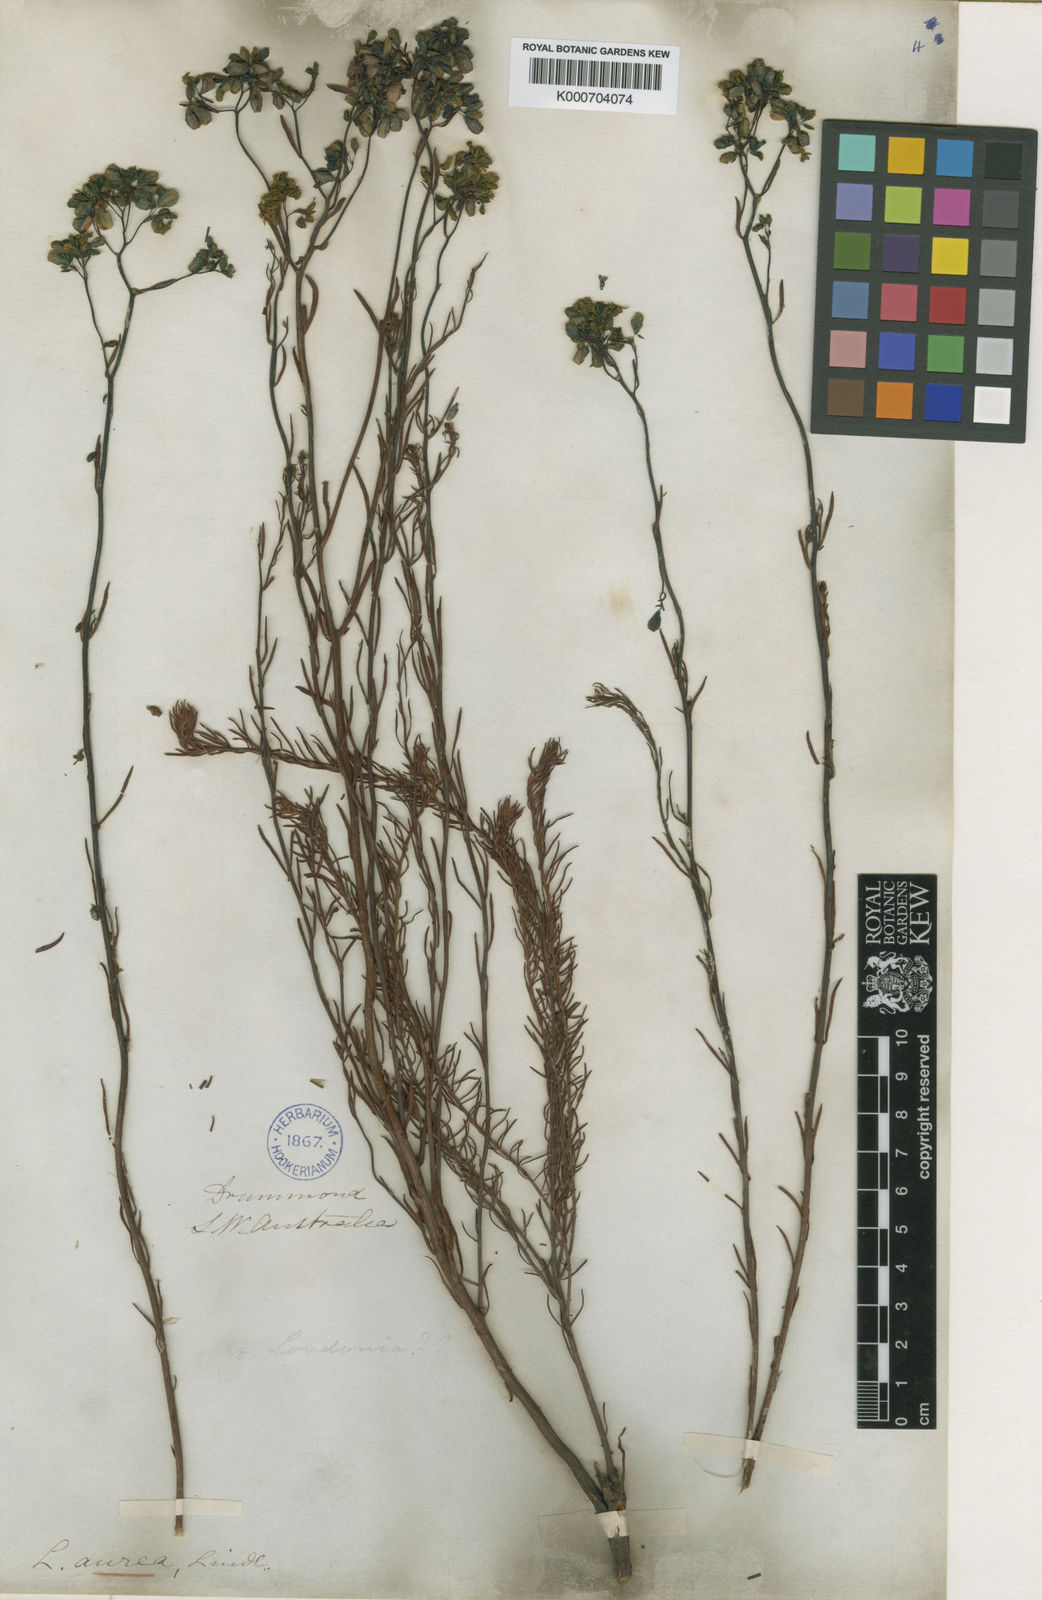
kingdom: Plantae
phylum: Tracheophyta
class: Magnoliopsida
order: Saxifragales
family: Haloragaceae
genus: Glischrocaryon
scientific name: Glischrocaryon aureum
